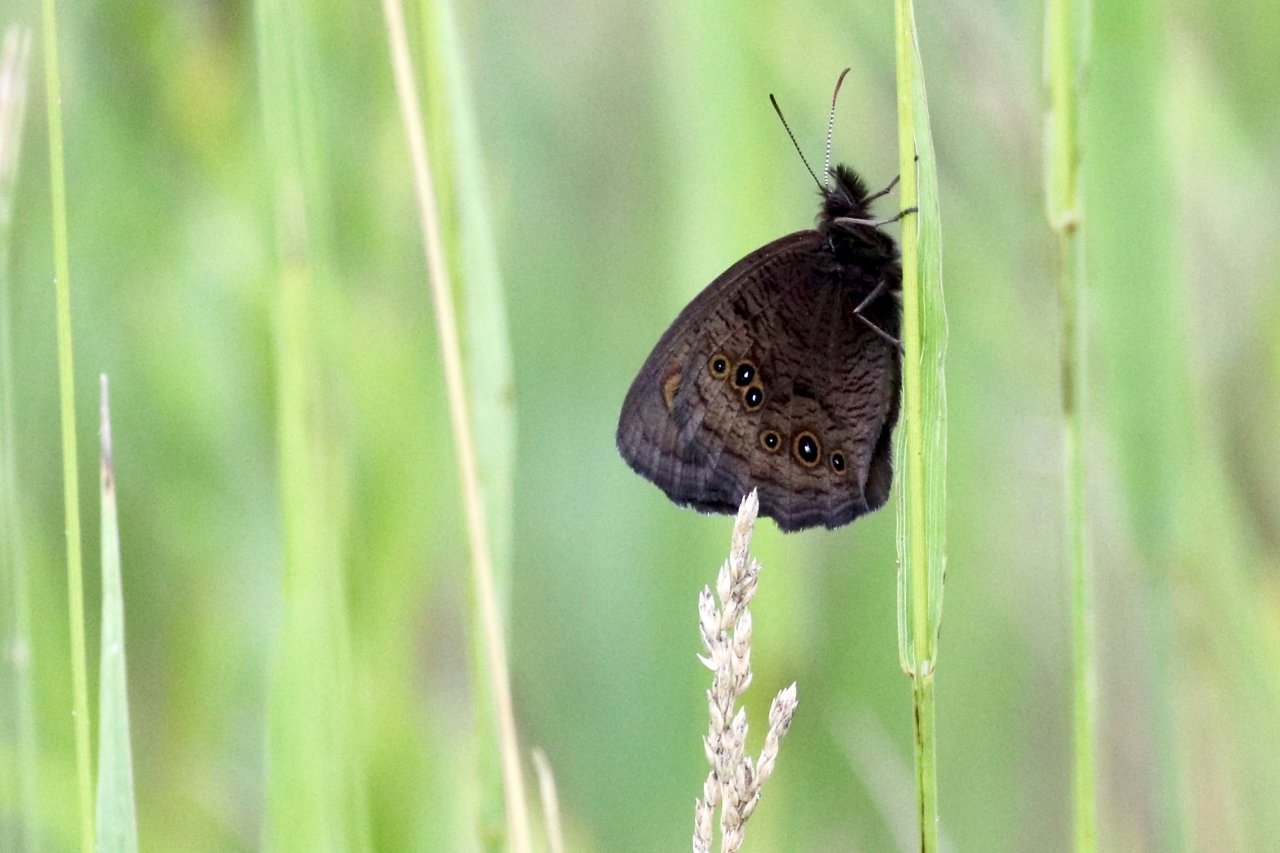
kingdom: Animalia
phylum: Arthropoda
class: Insecta
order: Lepidoptera
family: Nymphalidae
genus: Cercyonis
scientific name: Cercyonis
